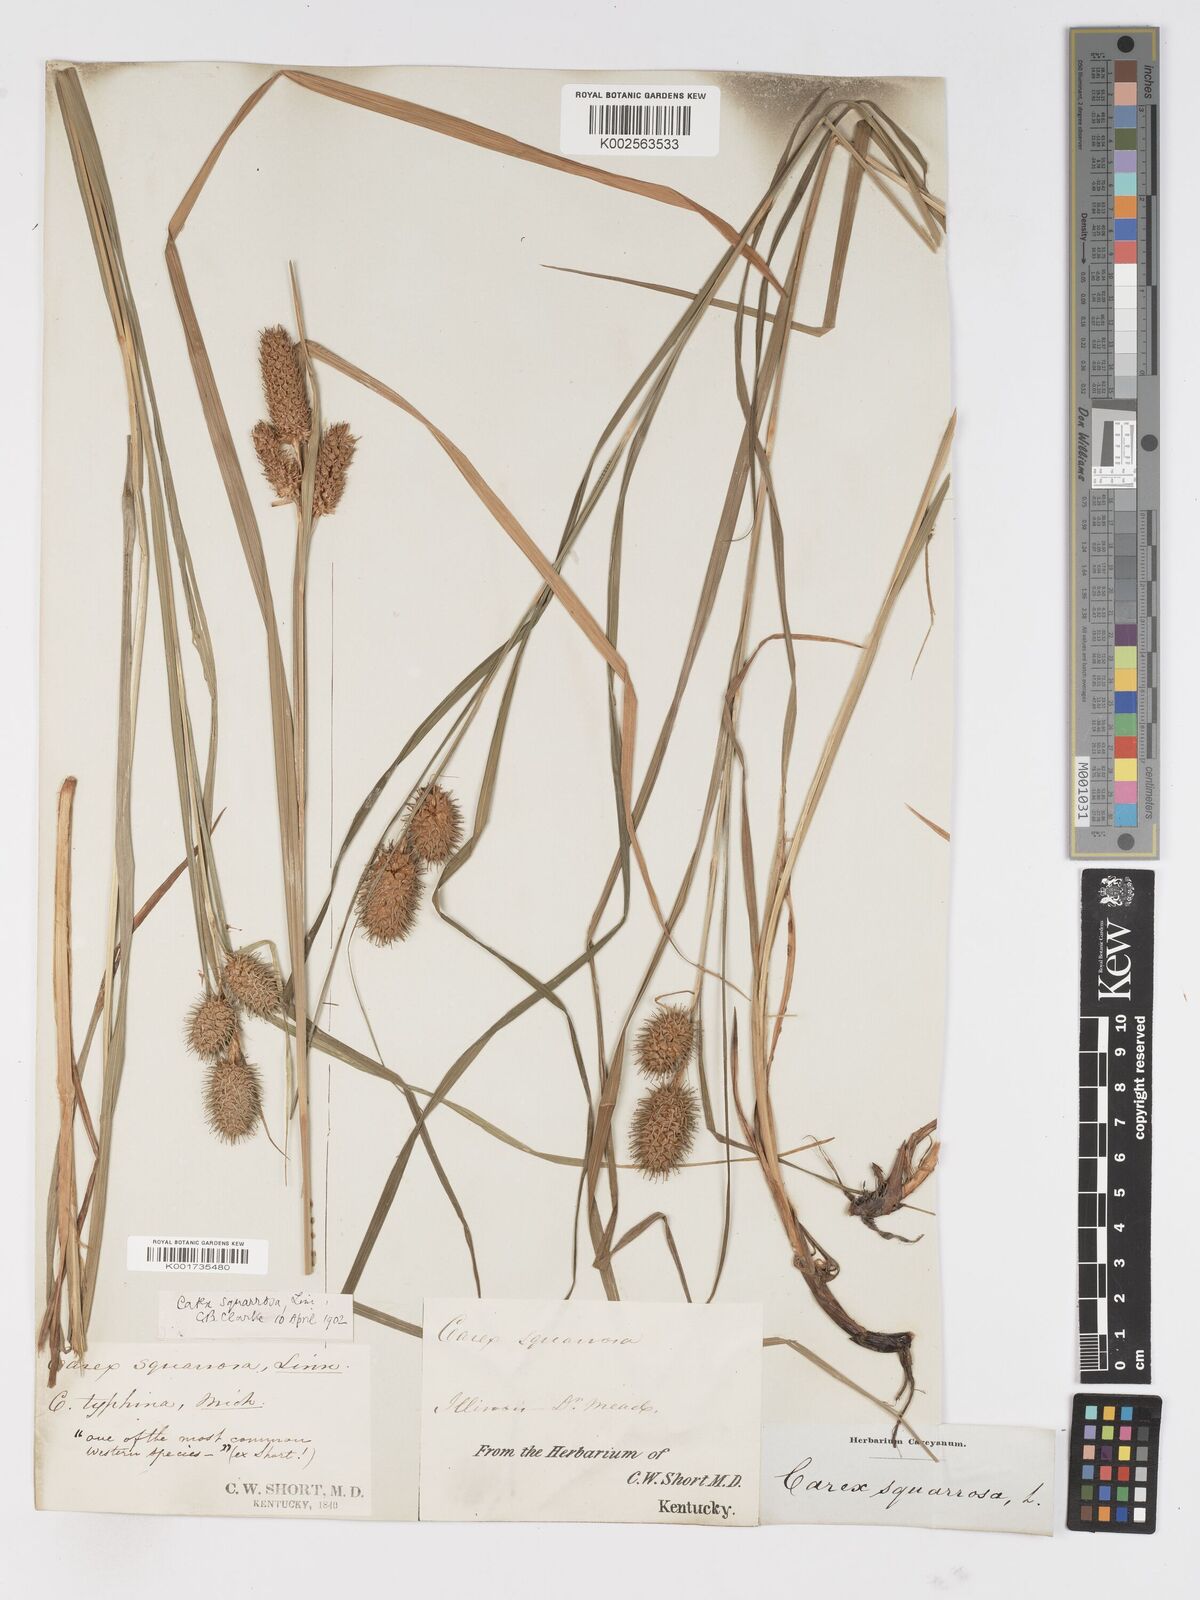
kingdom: Plantae
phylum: Tracheophyta
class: Liliopsida
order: Poales
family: Cyperaceae
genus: Carex
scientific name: Carex squarrosa
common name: Narrow-leaved cattail sedge
